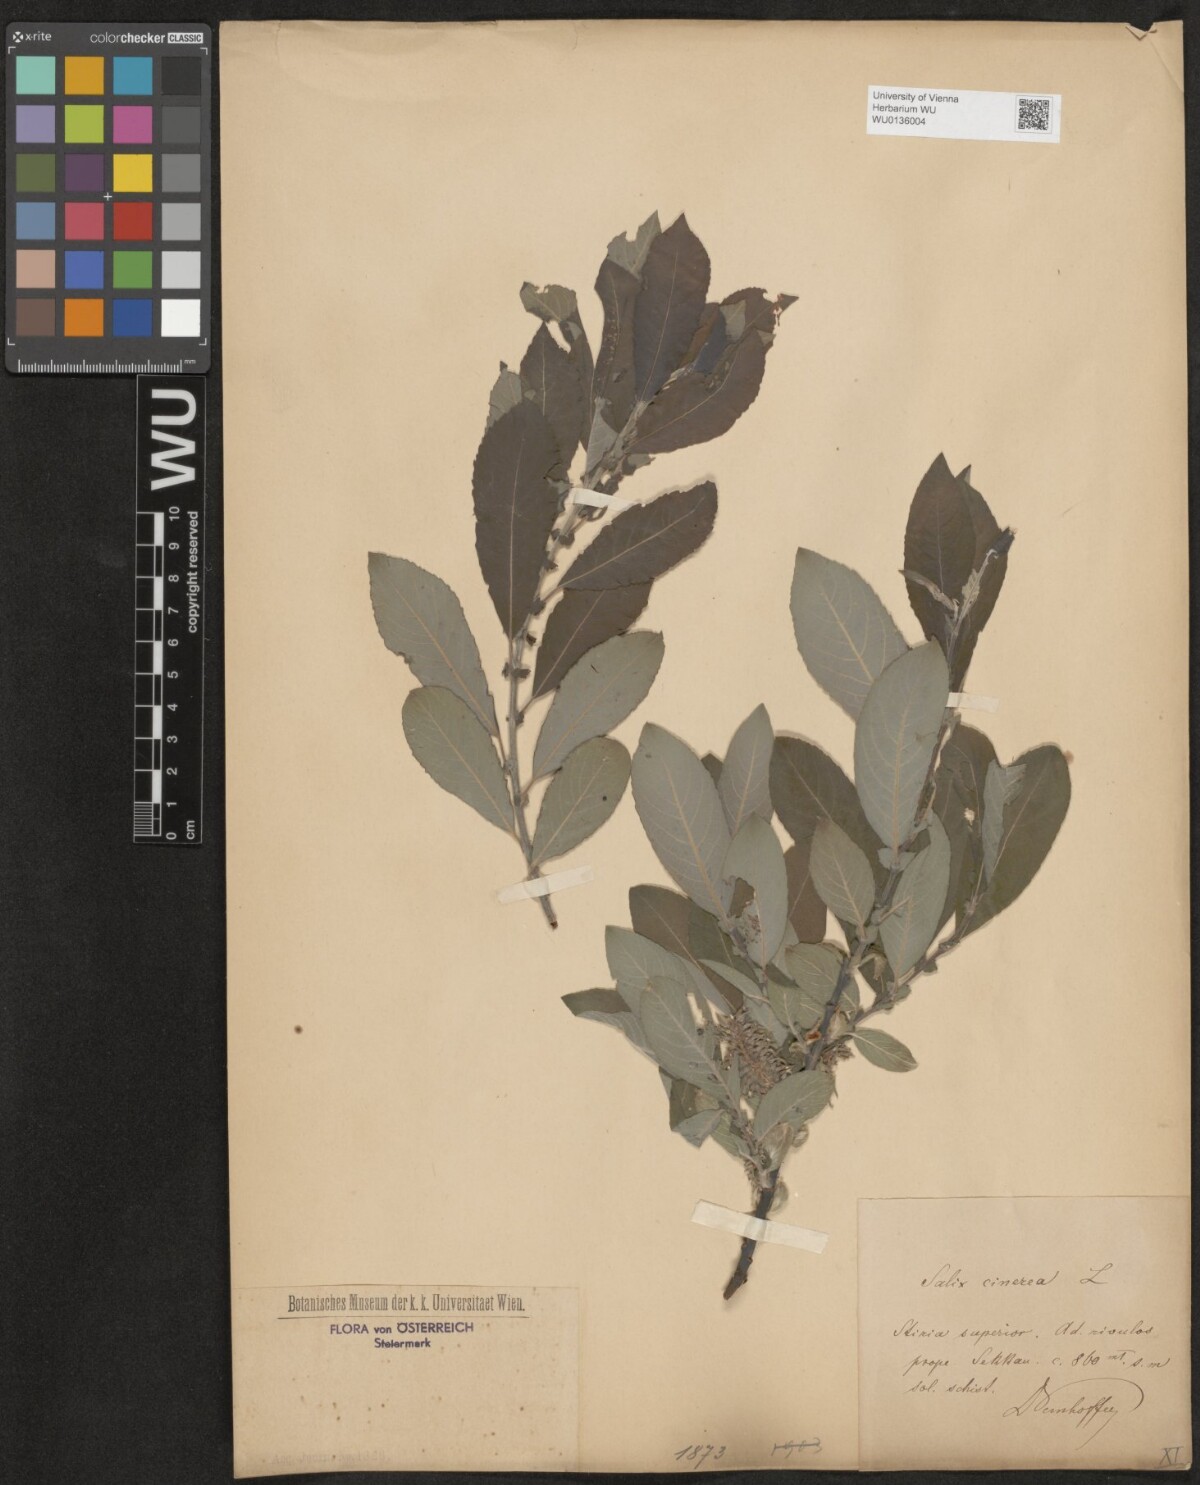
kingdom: Plantae
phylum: Tracheophyta
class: Magnoliopsida
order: Malpighiales
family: Salicaceae
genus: Salix
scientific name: Salix cinerea
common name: Common sallow
